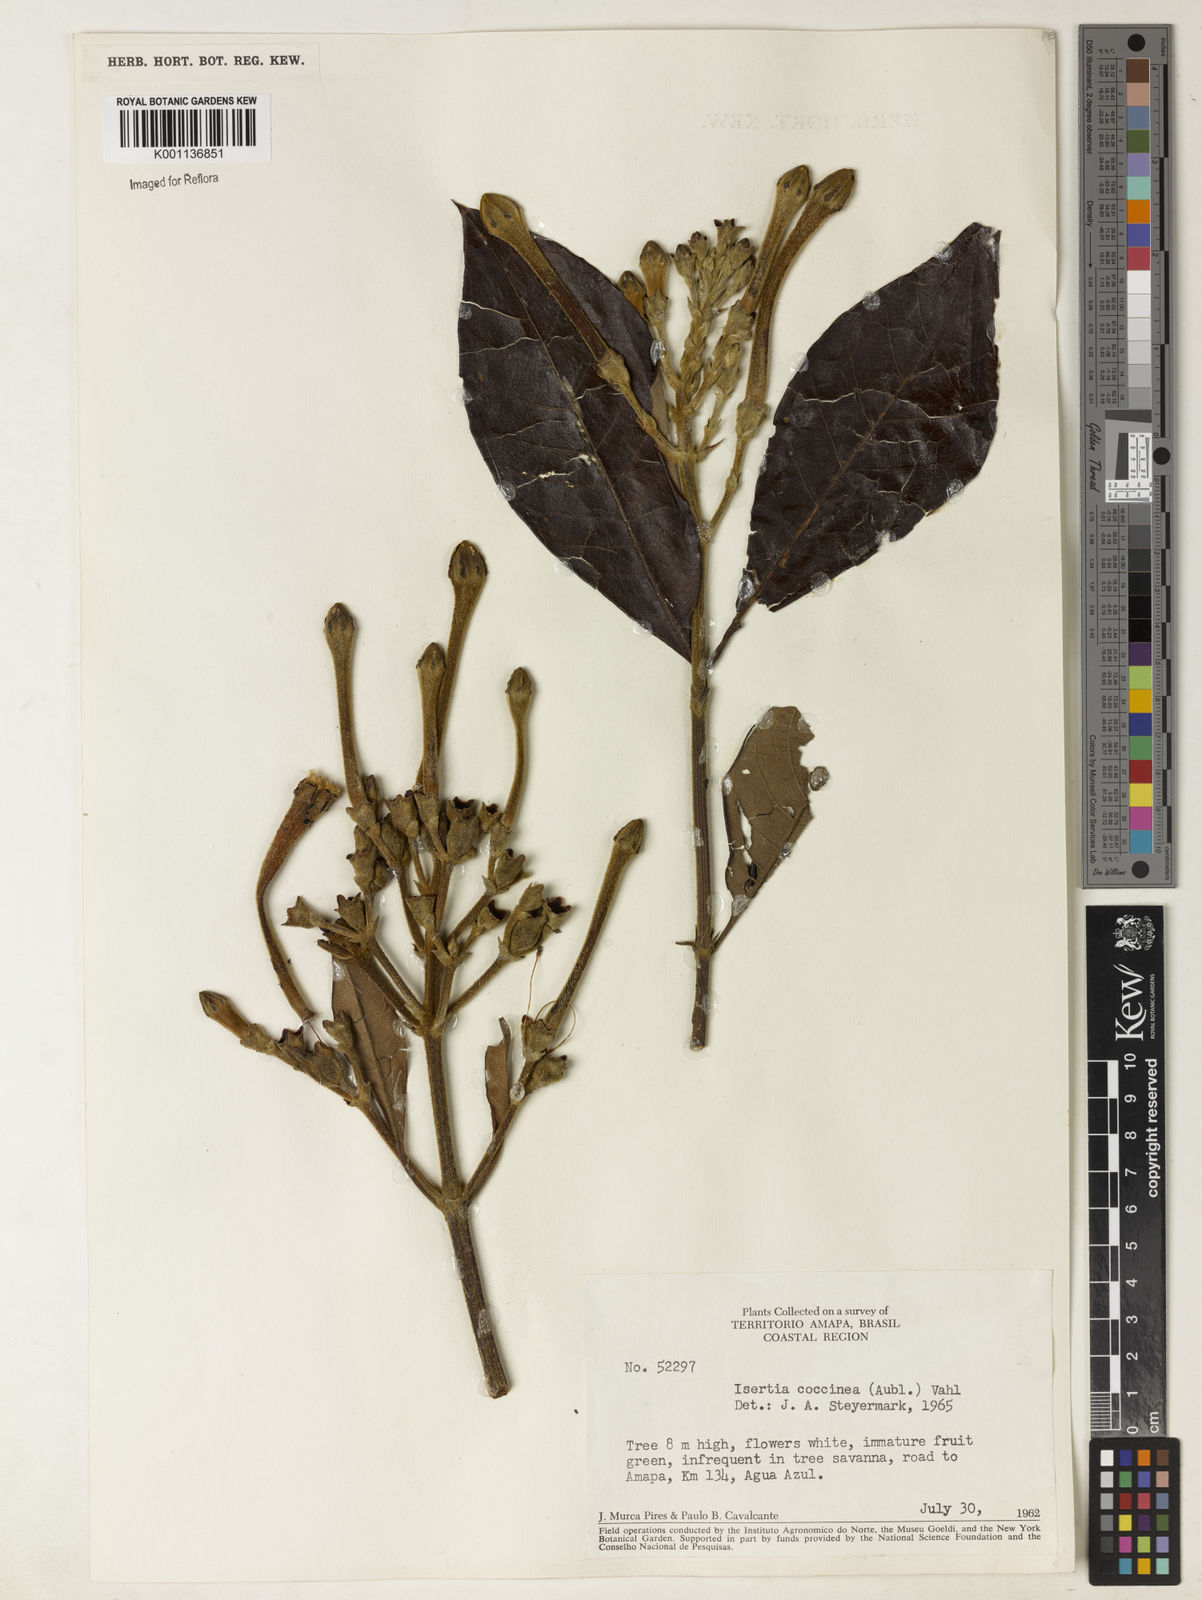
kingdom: Plantae
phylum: Tracheophyta
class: Magnoliopsida
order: Gentianales
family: Rubiaceae
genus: Isertia
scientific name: Isertia coccinea
